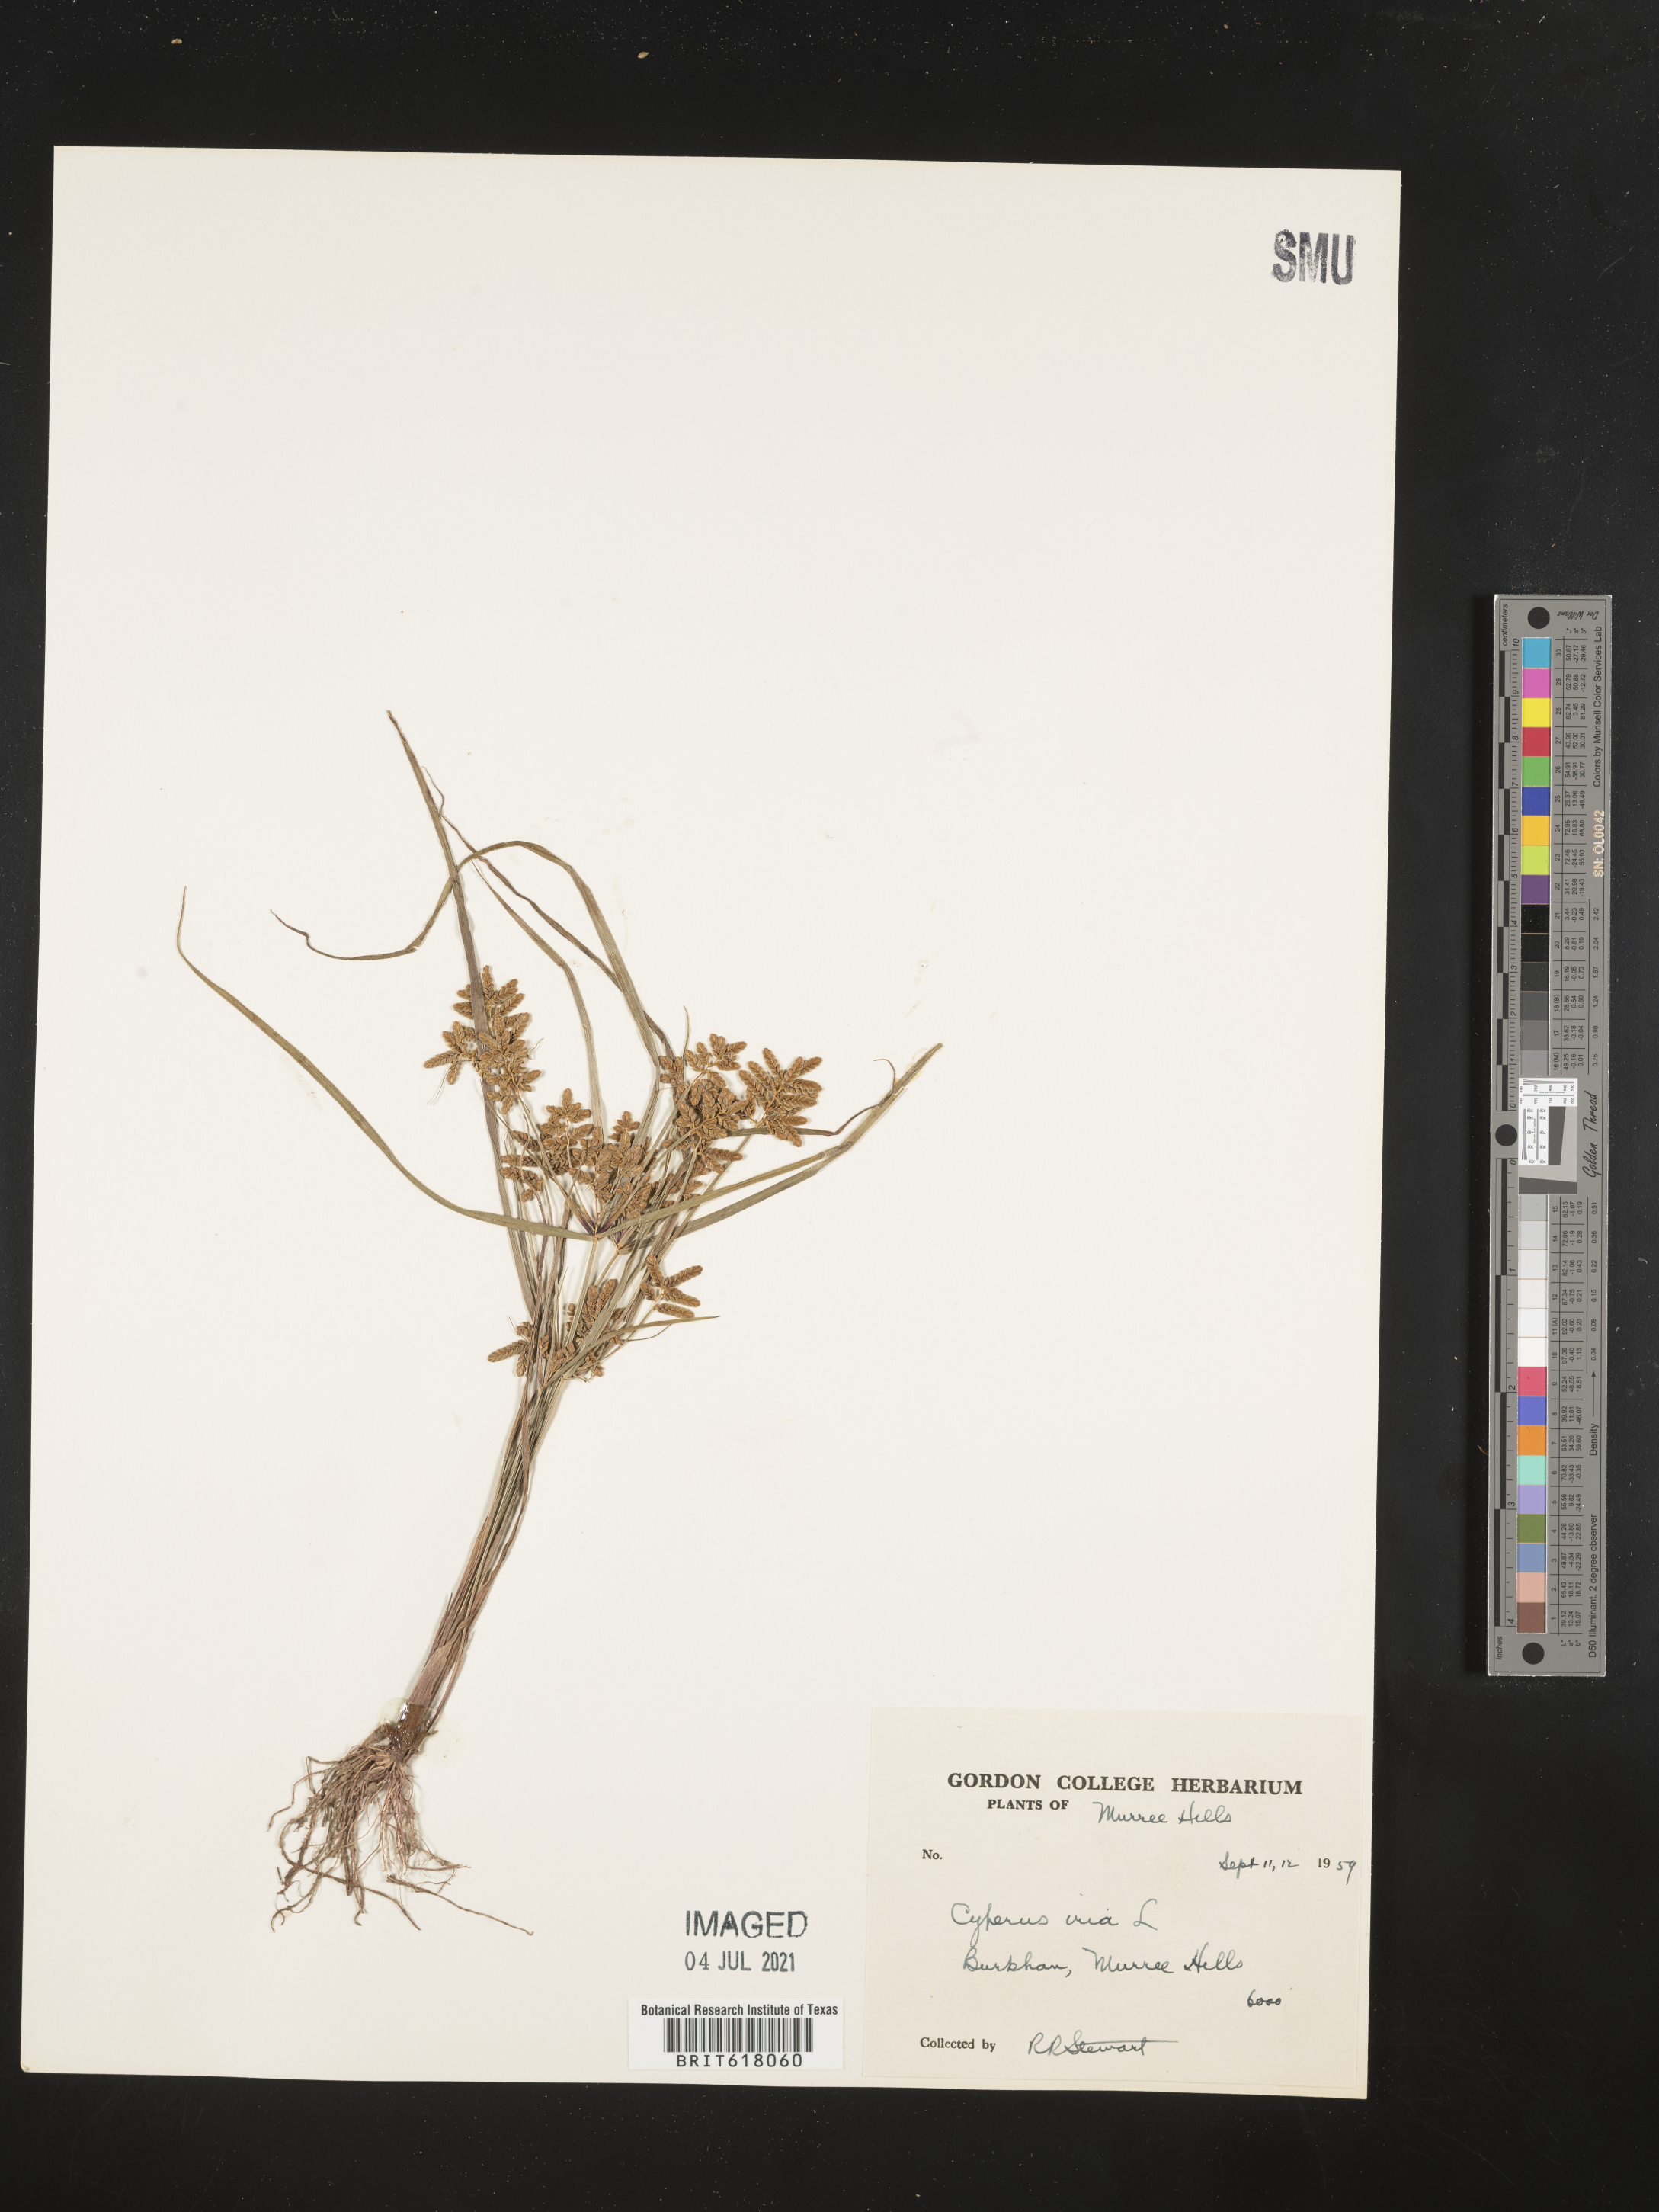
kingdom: Plantae
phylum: Tracheophyta
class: Liliopsida
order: Poales
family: Cyperaceae
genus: Cyperus
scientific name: Cyperus iria
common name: Ricefield flatsedge
